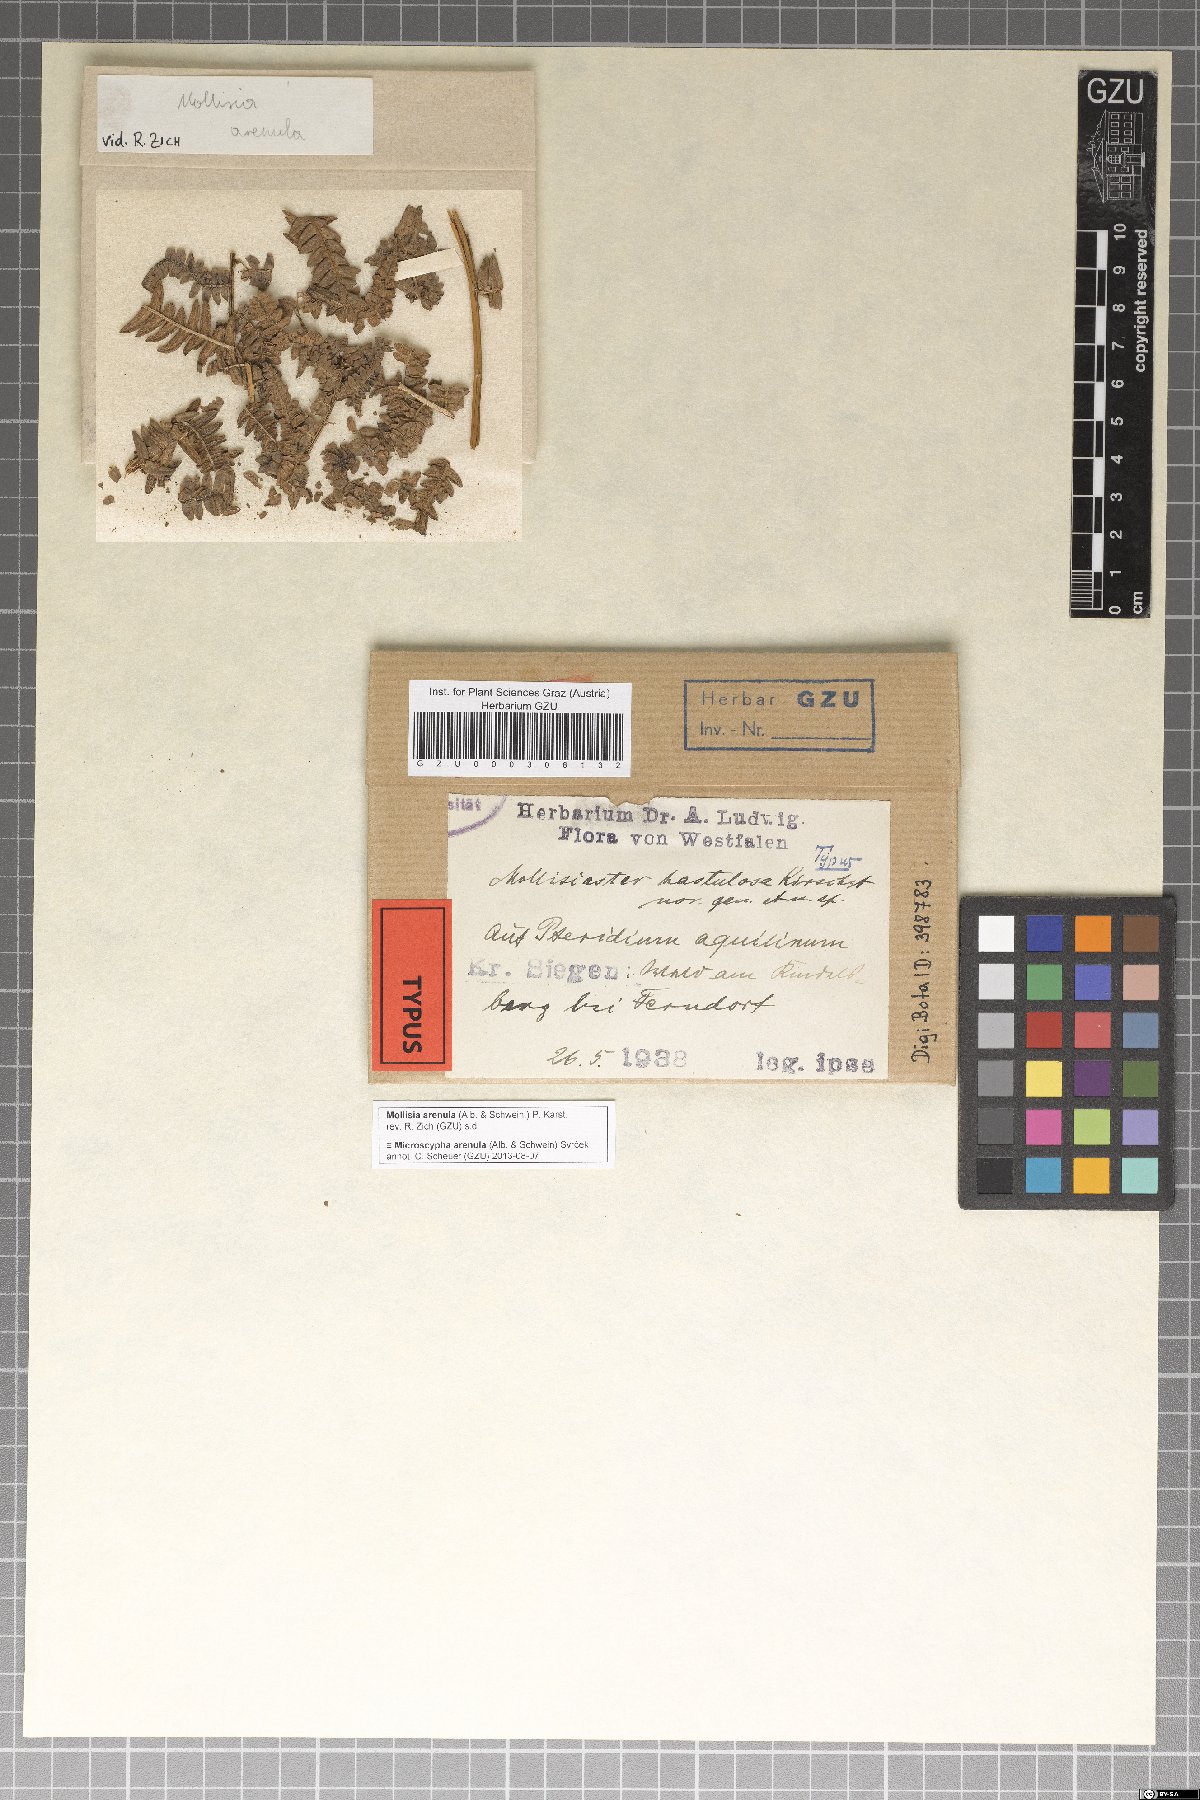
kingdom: Fungi
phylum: Ascomycota
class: Leotiomycetes
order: Helotiales
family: Hamatocanthoscyphaceae
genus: Mollisiaster
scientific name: Mollisiaster hastulosus
